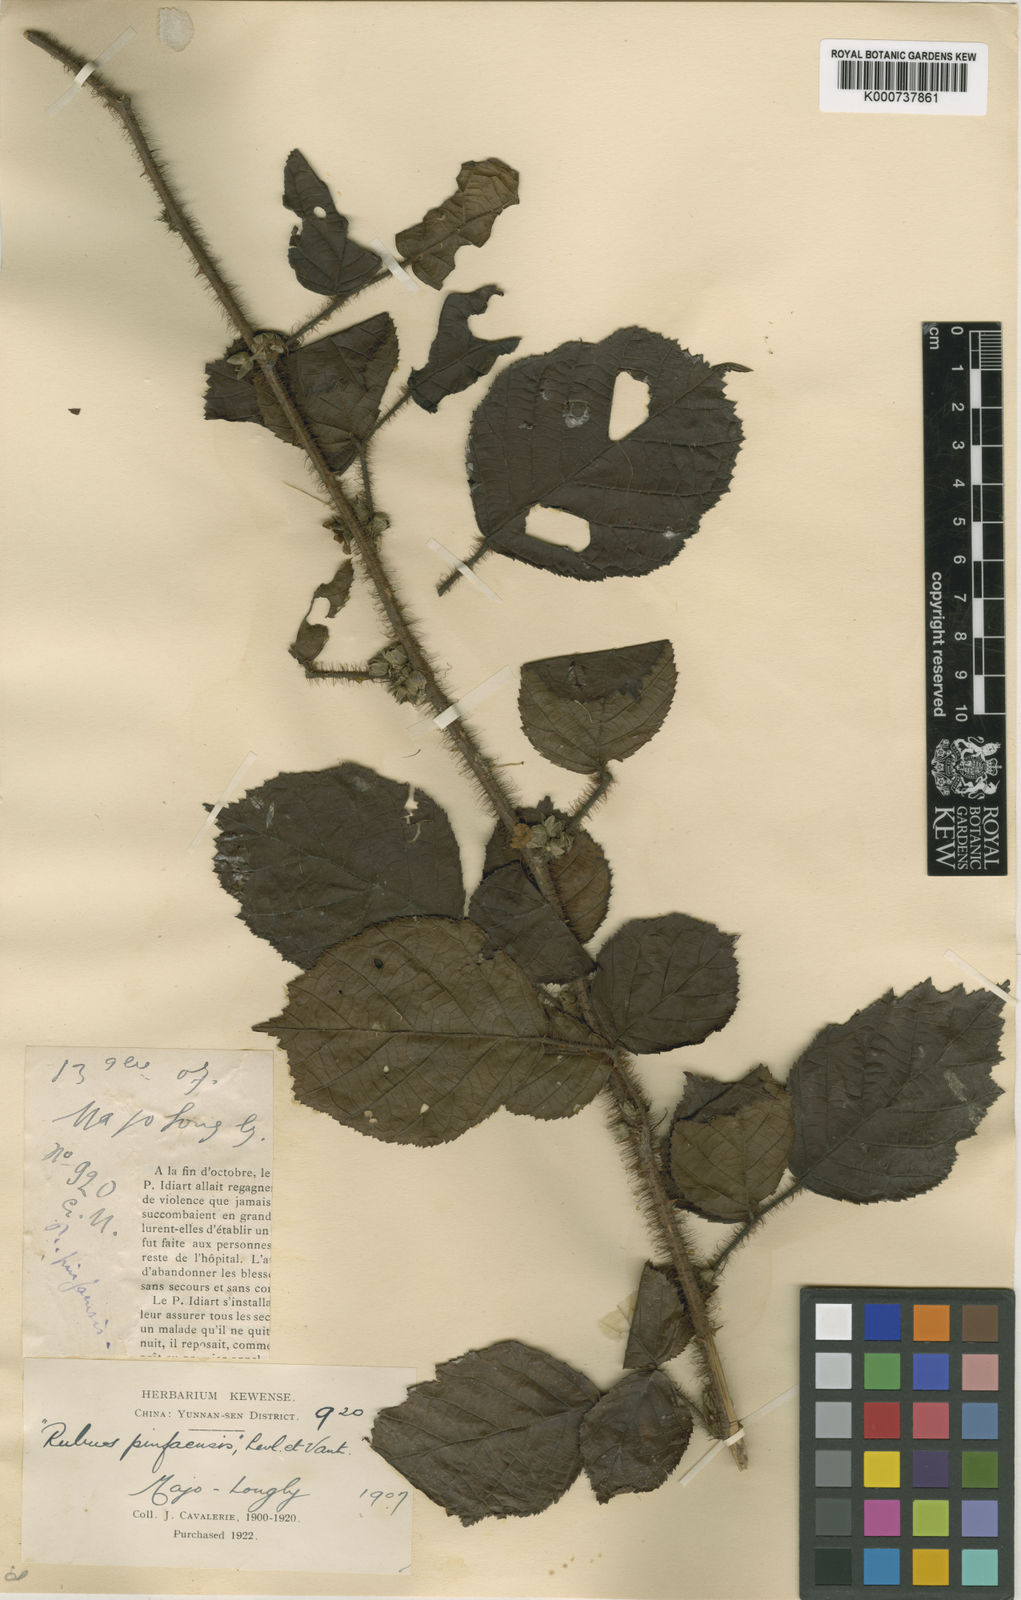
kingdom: Plantae
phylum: Tracheophyta
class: Magnoliopsida
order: Rosales
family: Rosaceae
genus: Rubus
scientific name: Rubus
